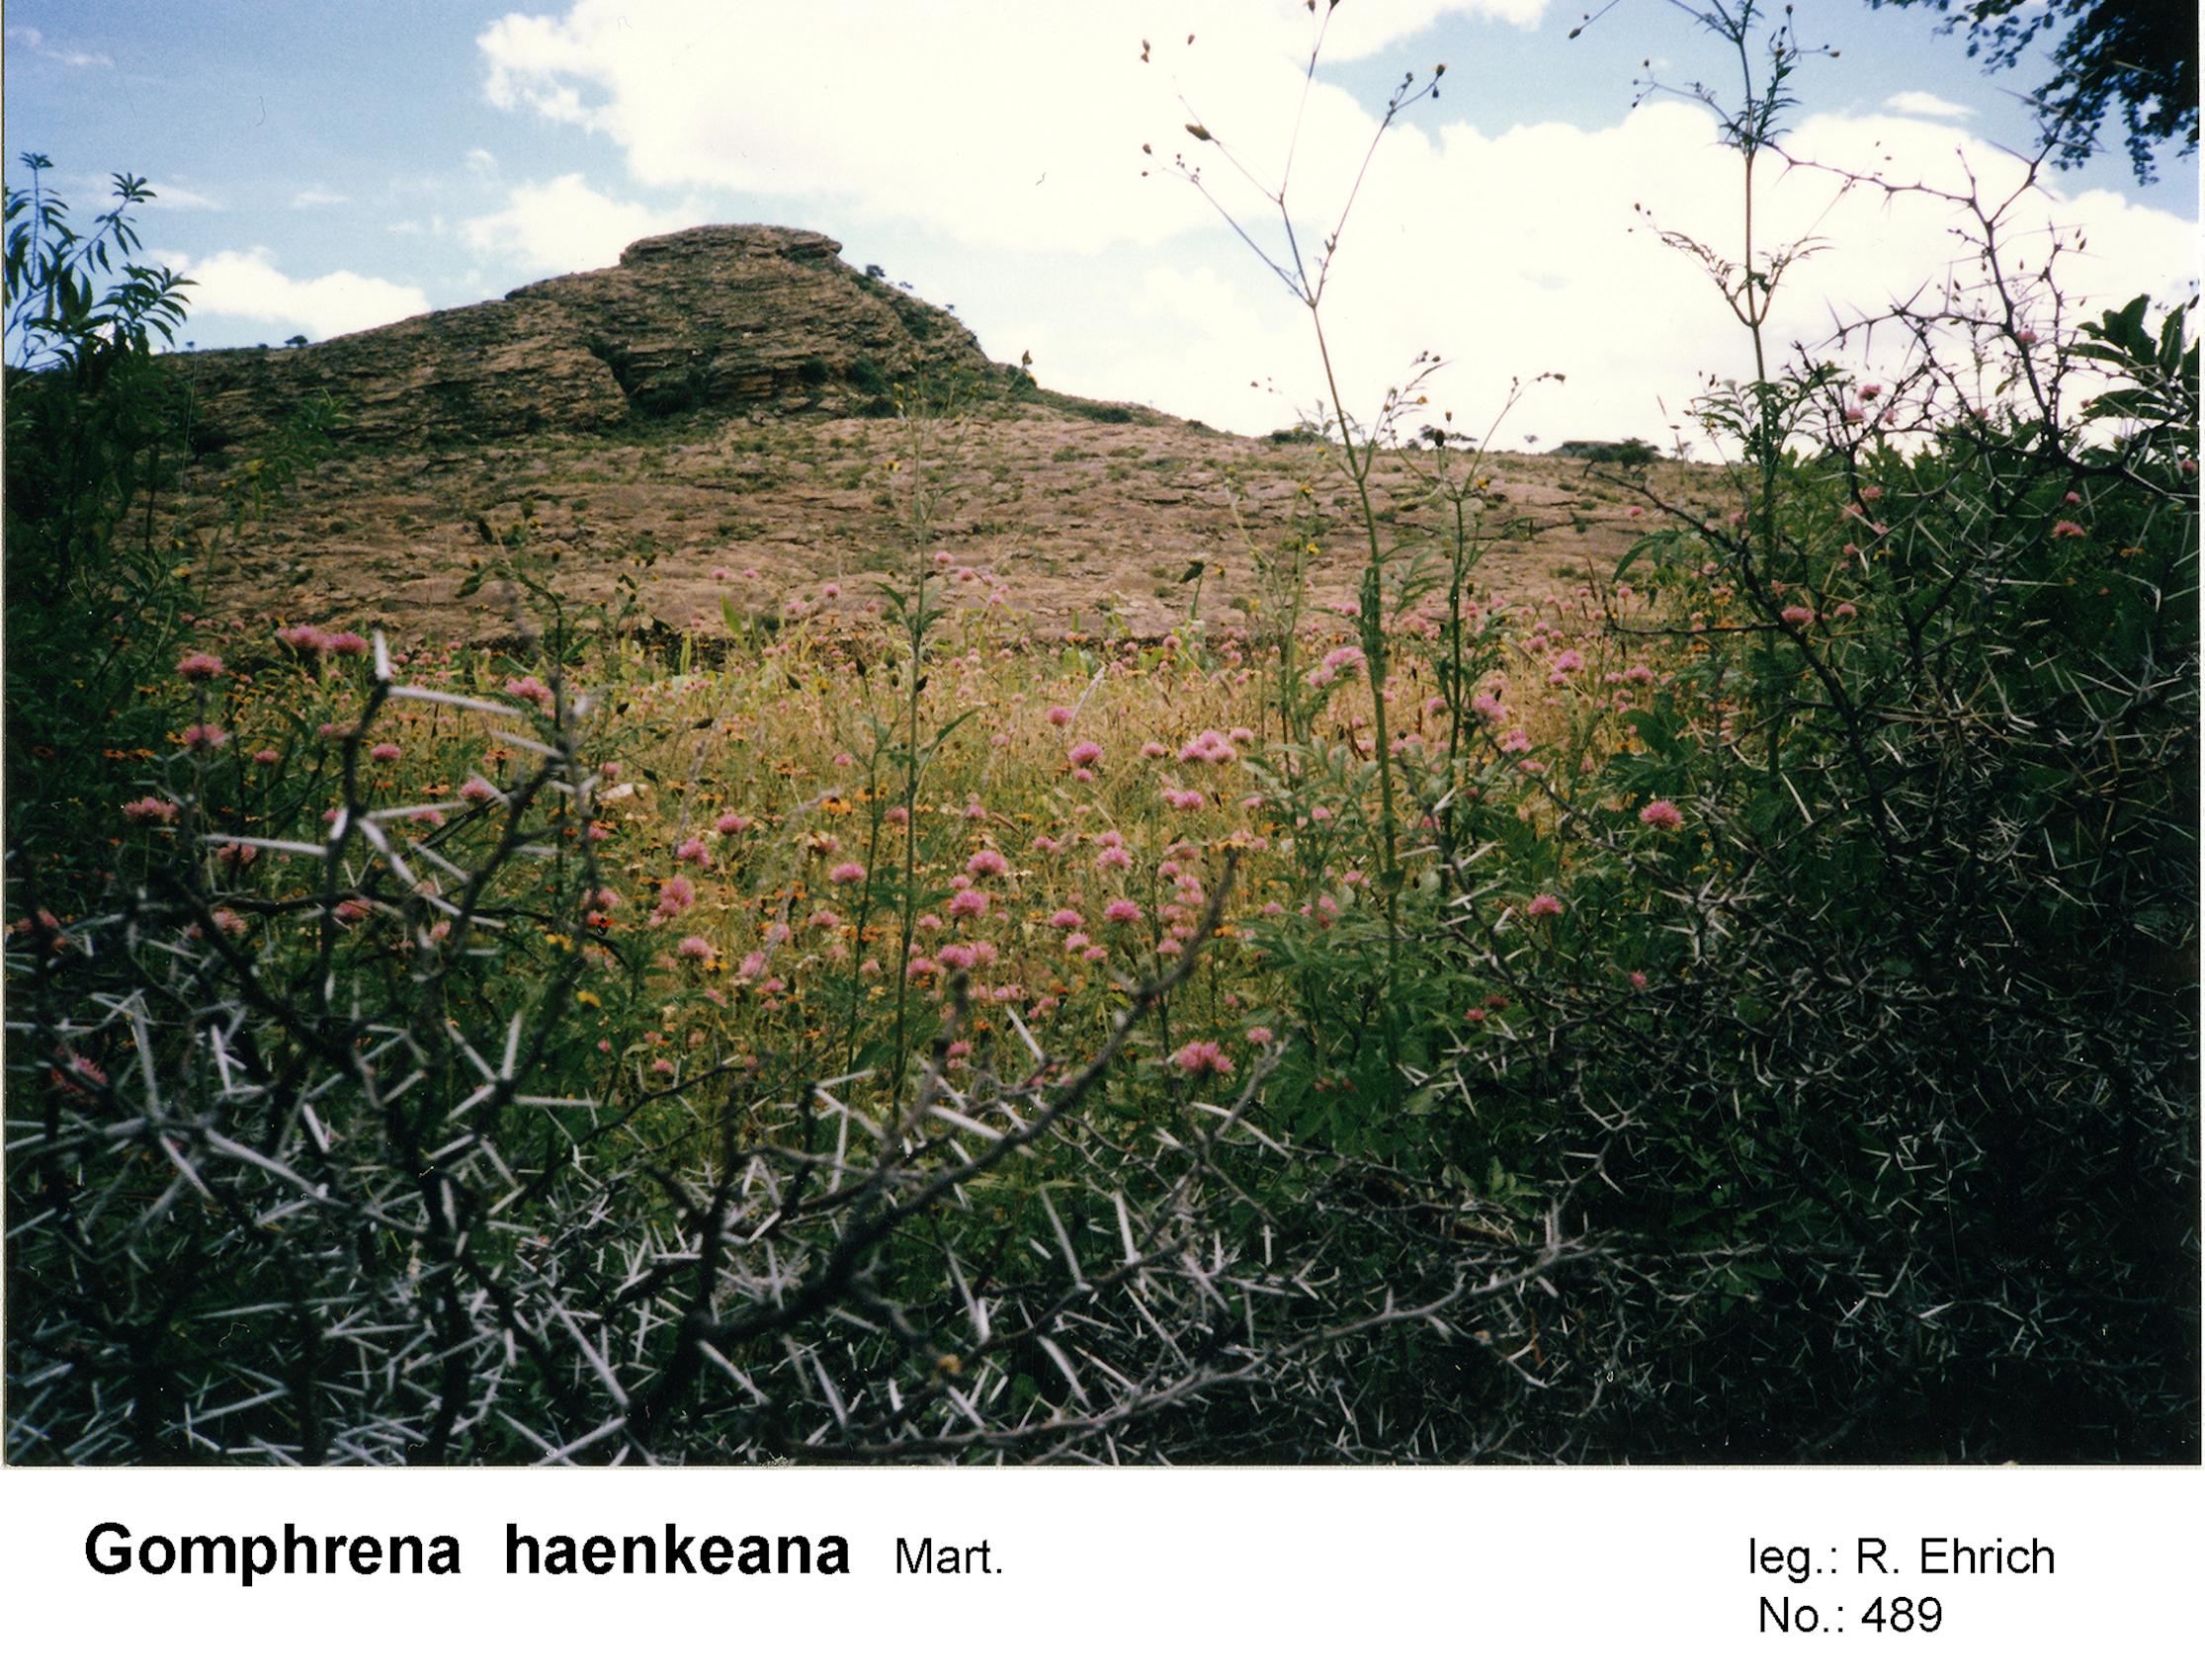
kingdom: Plantae
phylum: Tracheophyta
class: Magnoliopsida
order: Caryophyllales
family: Amaranthaceae
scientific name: Amaranthaceae
